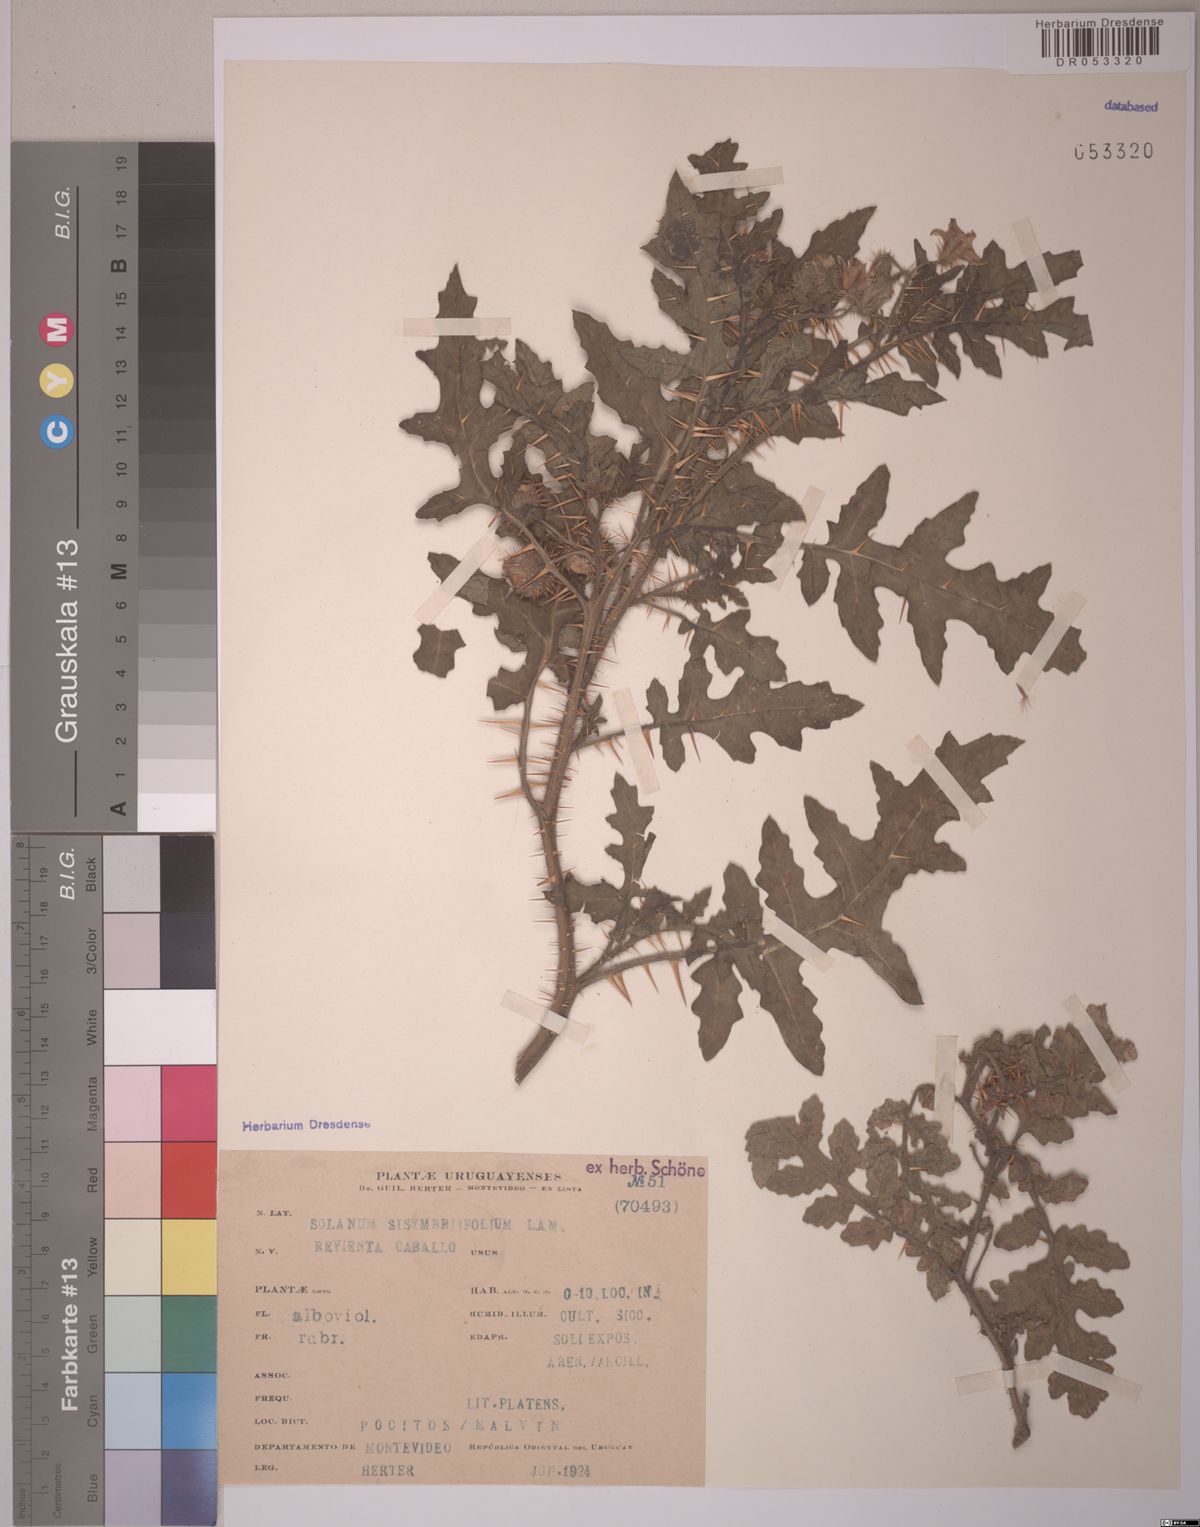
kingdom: Plantae
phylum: Tracheophyta
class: Magnoliopsida
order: Solanales
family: Solanaceae
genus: Solanum
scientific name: Solanum sisymbriifolium
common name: Red buffalo-bur
